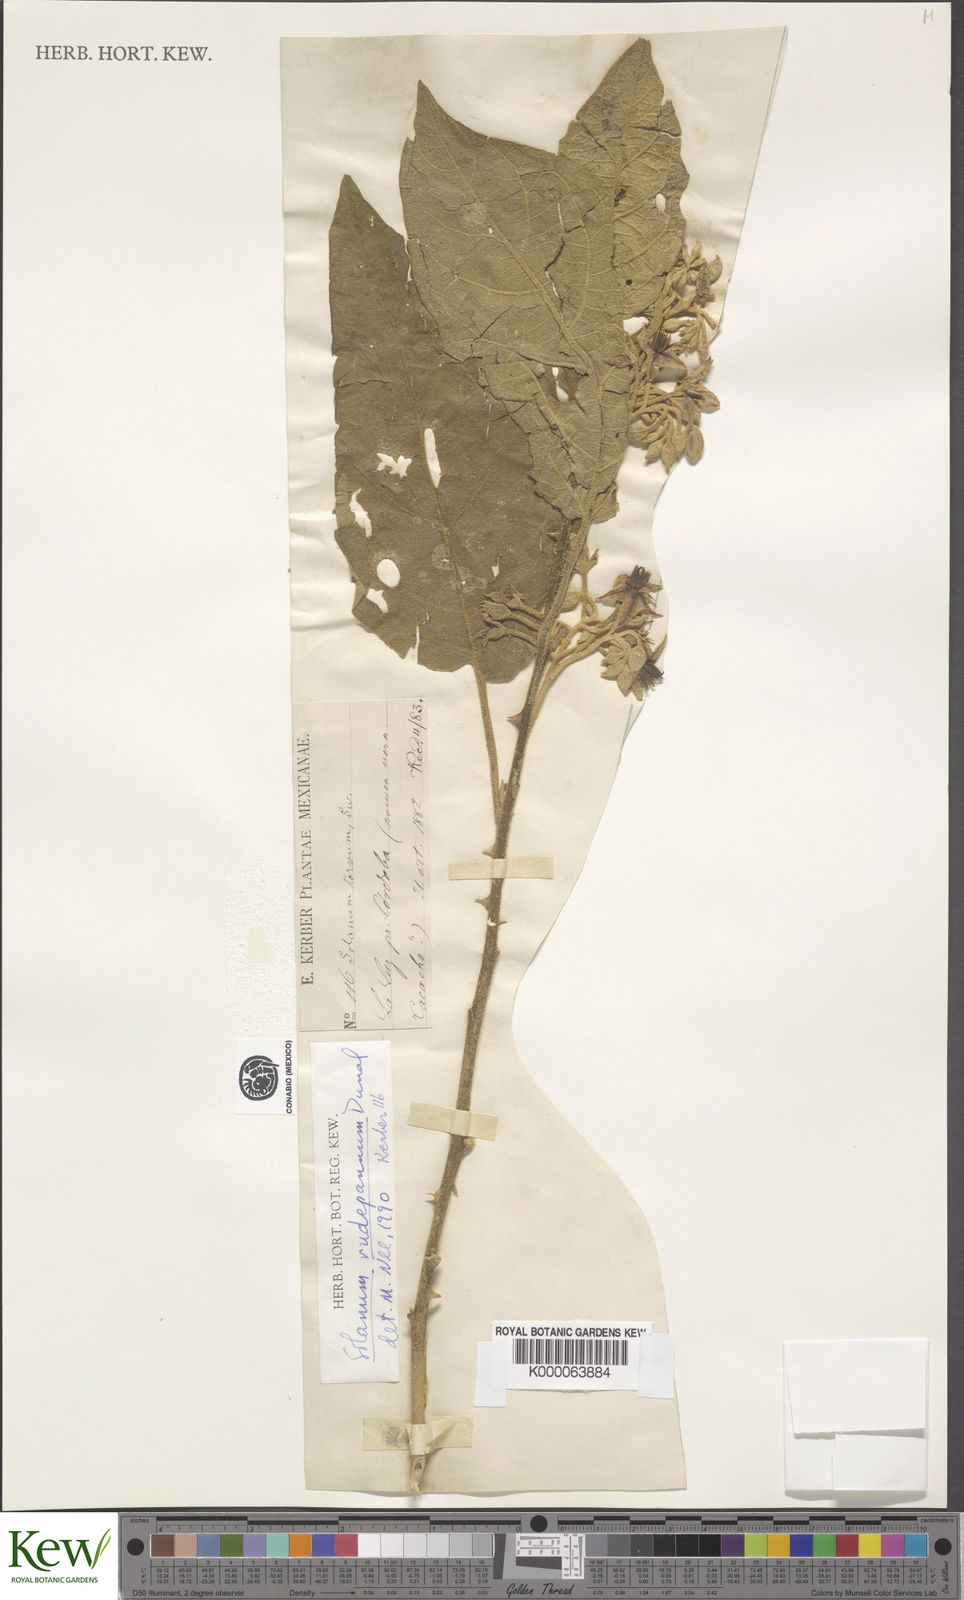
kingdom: Plantae
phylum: Tracheophyta
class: Magnoliopsida
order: Solanales
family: Solanaceae
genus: Solanum
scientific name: Solanum rude-pannum
